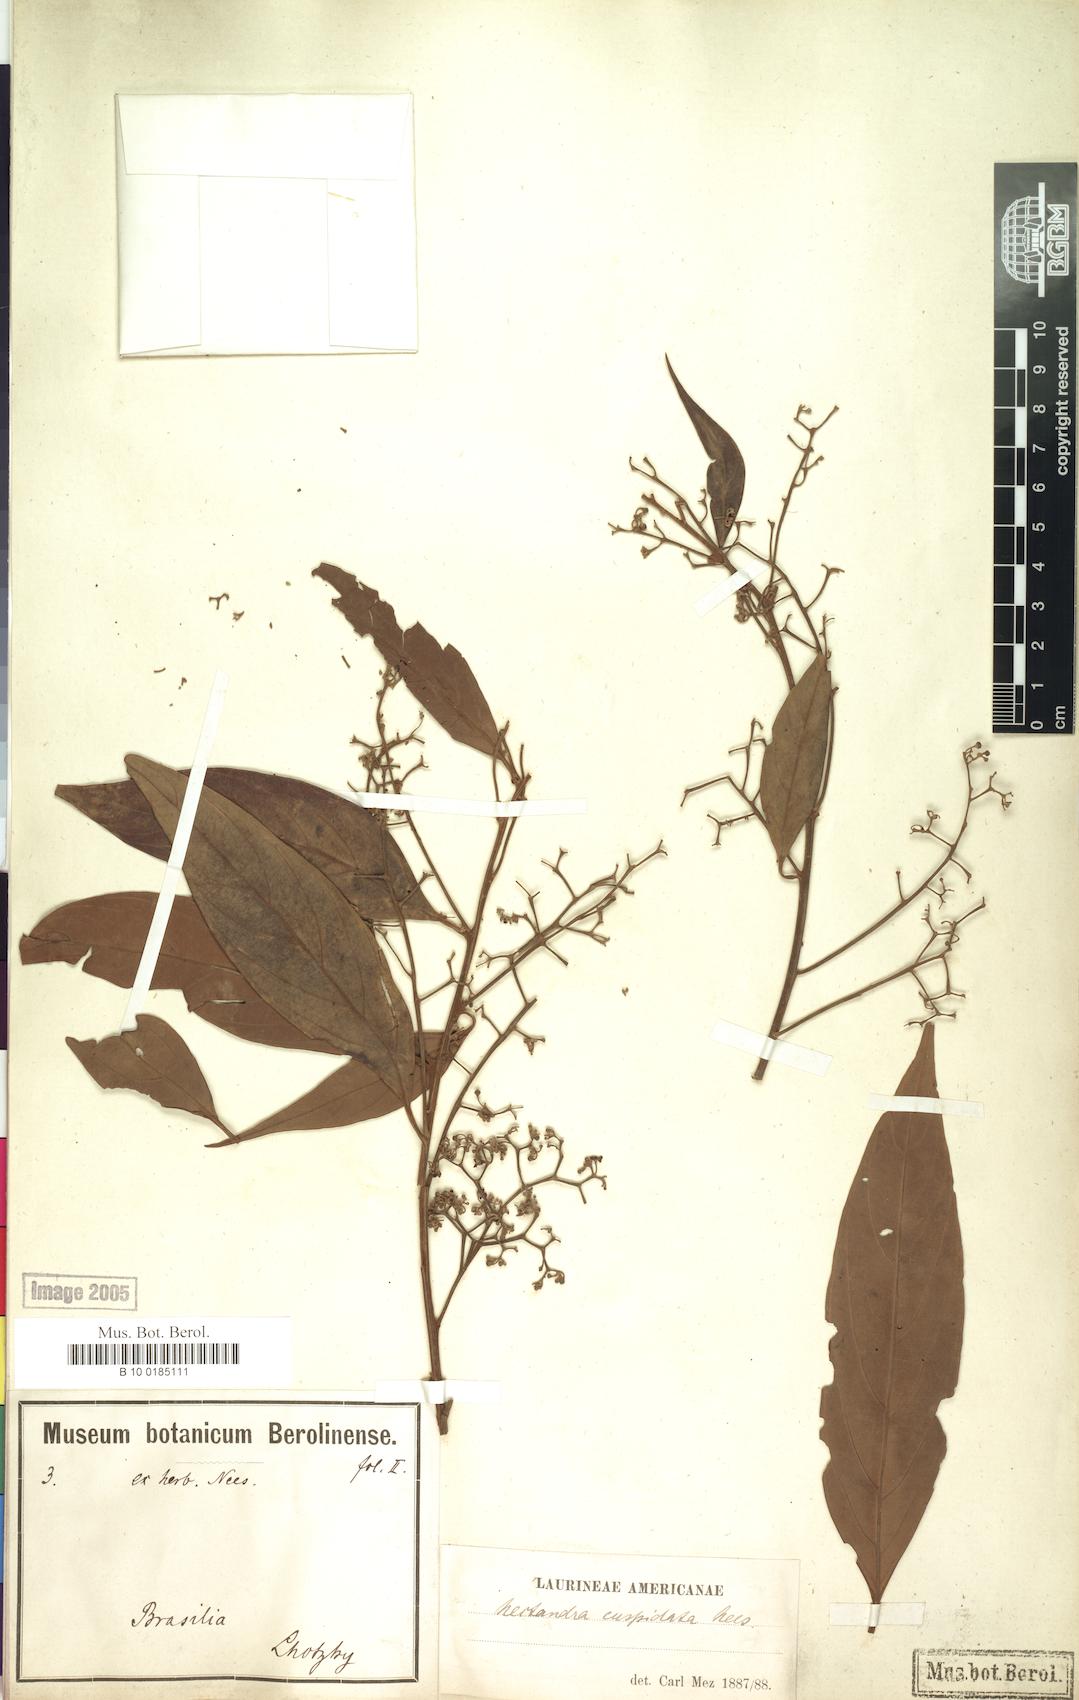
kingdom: Plantae
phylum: Tracheophyta
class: Magnoliopsida
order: Laurales
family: Lauraceae
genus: Nectandra
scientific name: Nectandra cuspidata
